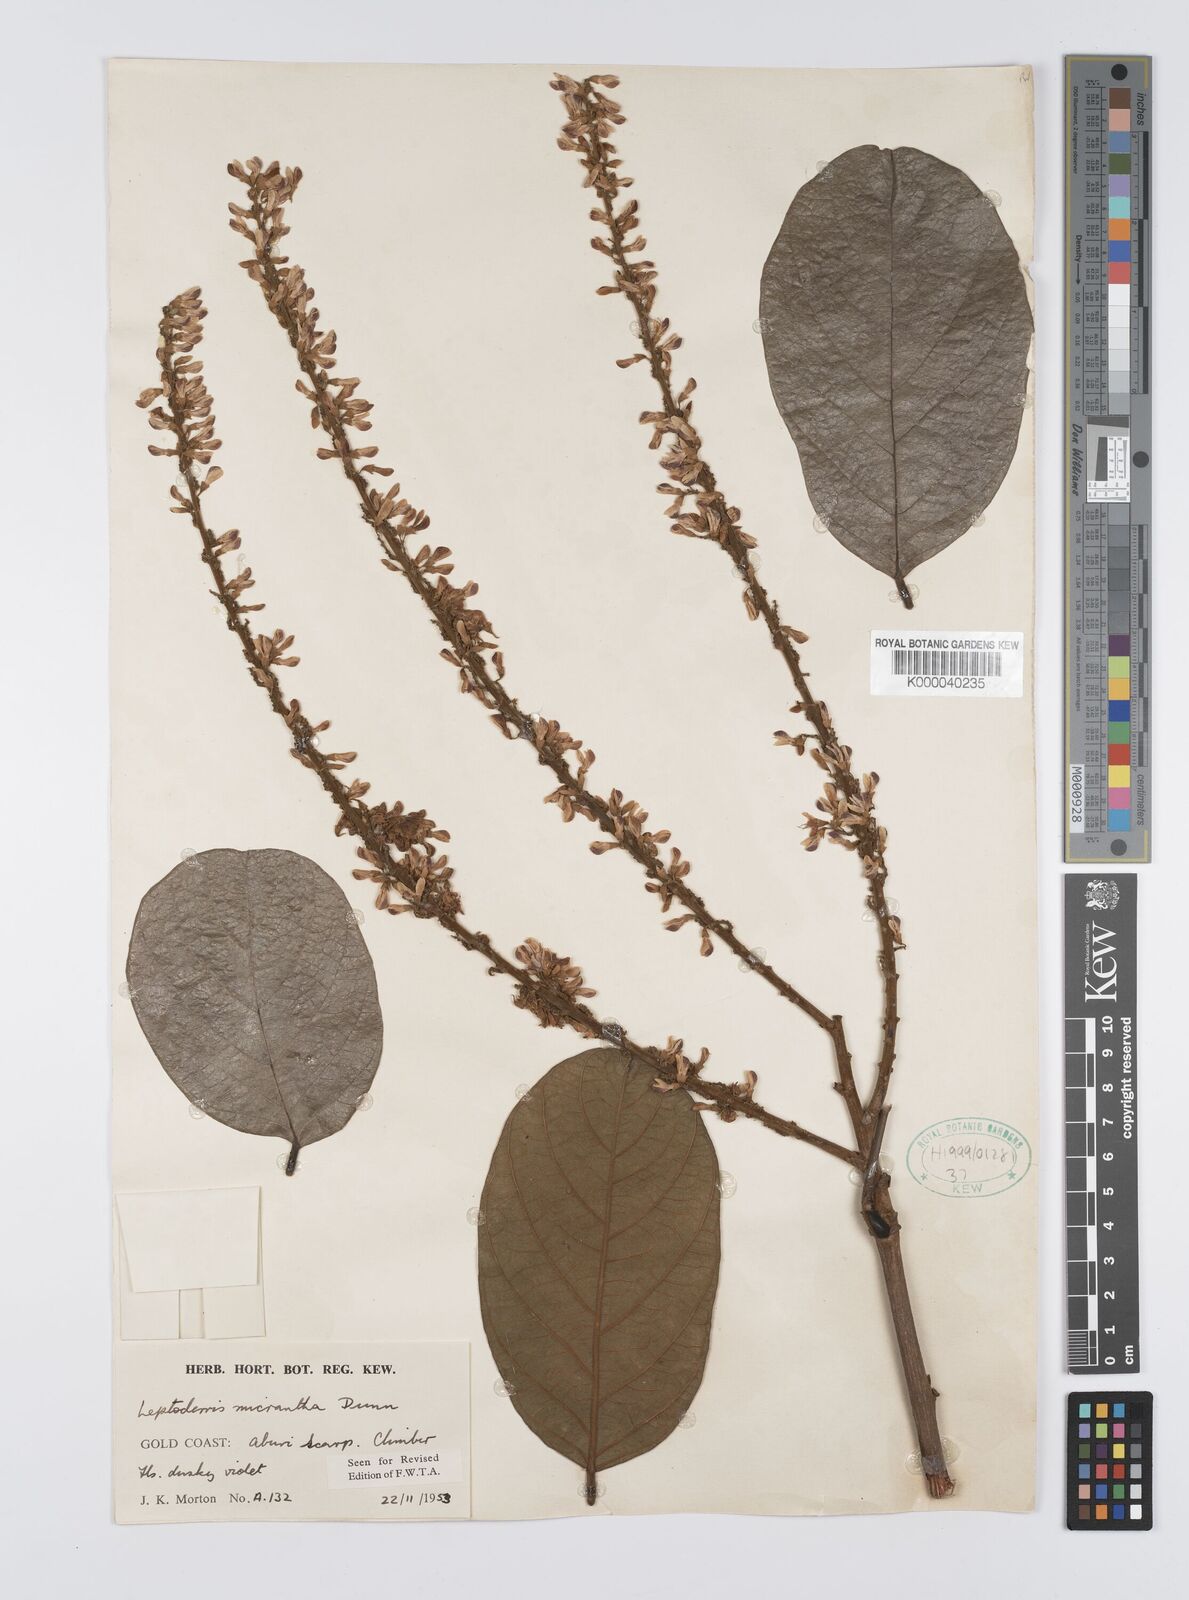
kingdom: Plantae
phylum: Tracheophyta
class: Magnoliopsida
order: Fabales
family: Fabaceae
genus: Leptoderris
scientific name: Leptoderris micrantha
